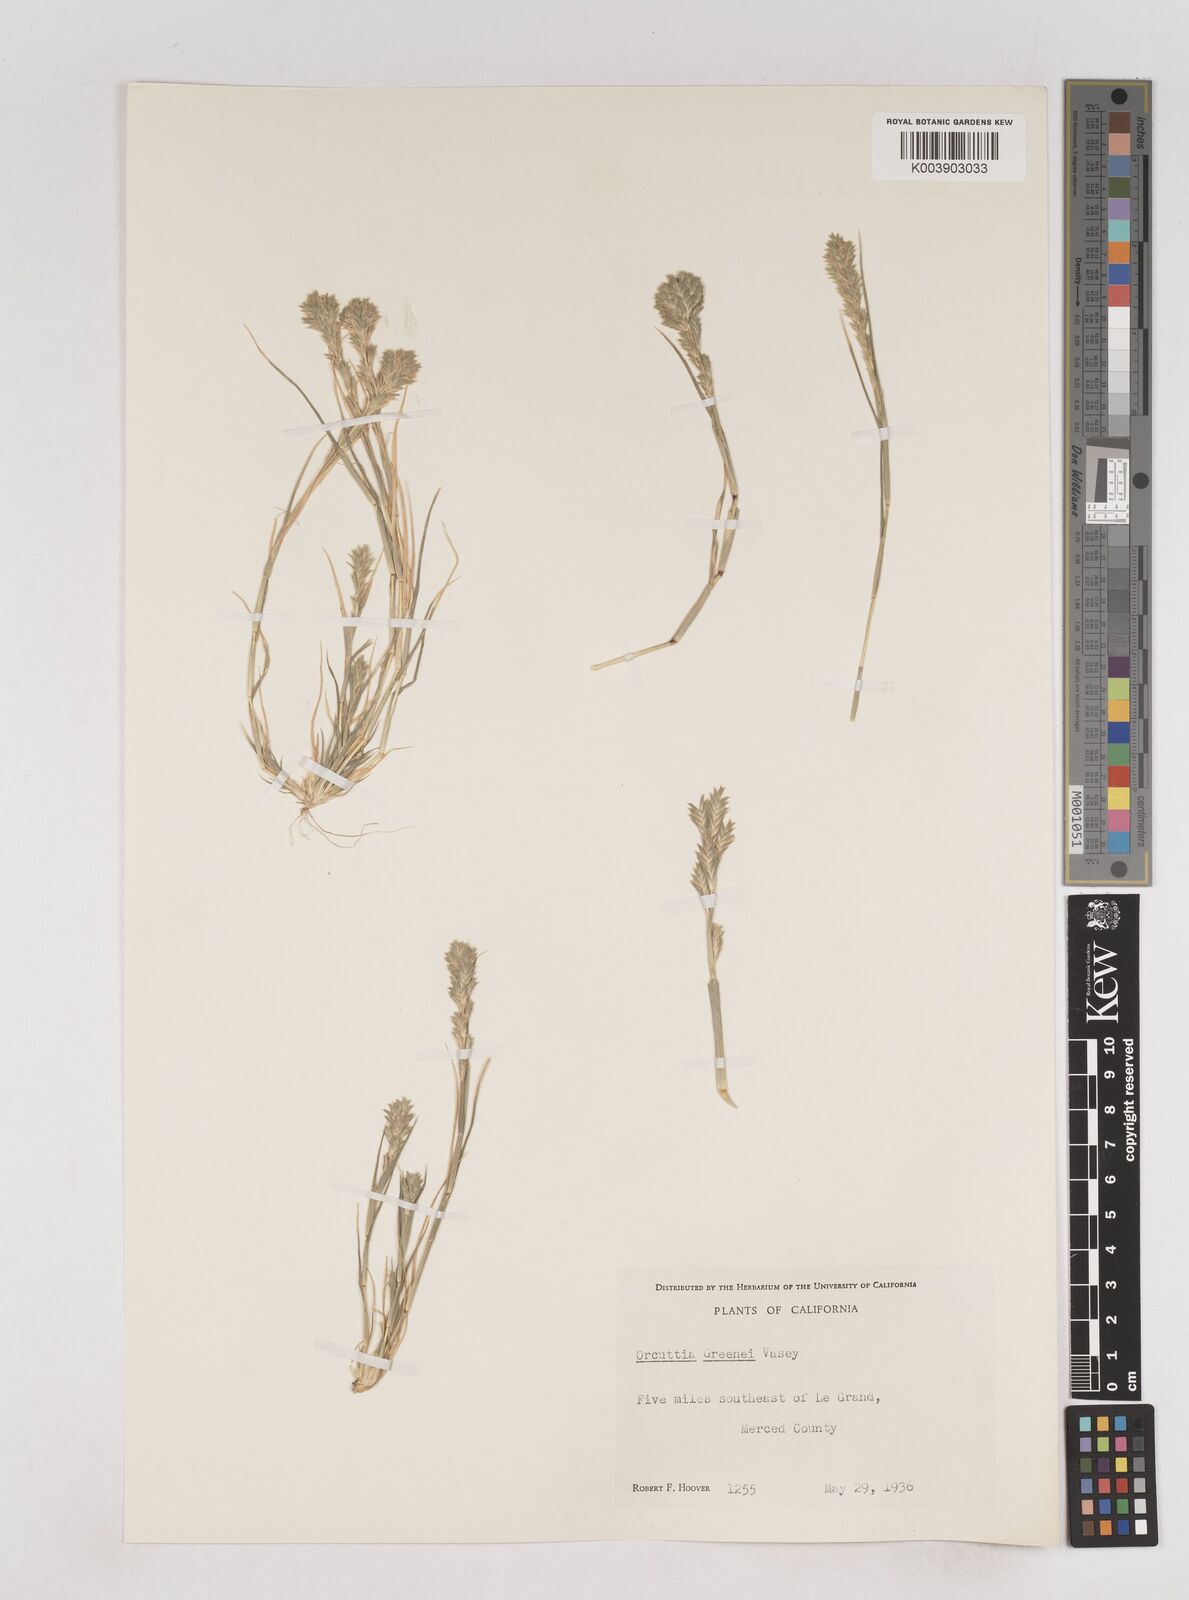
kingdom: Plantae
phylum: Tracheophyta
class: Liliopsida
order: Poales
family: Poaceae
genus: Tuctoria
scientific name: Tuctoria greenei
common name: Awnless spiral grass
